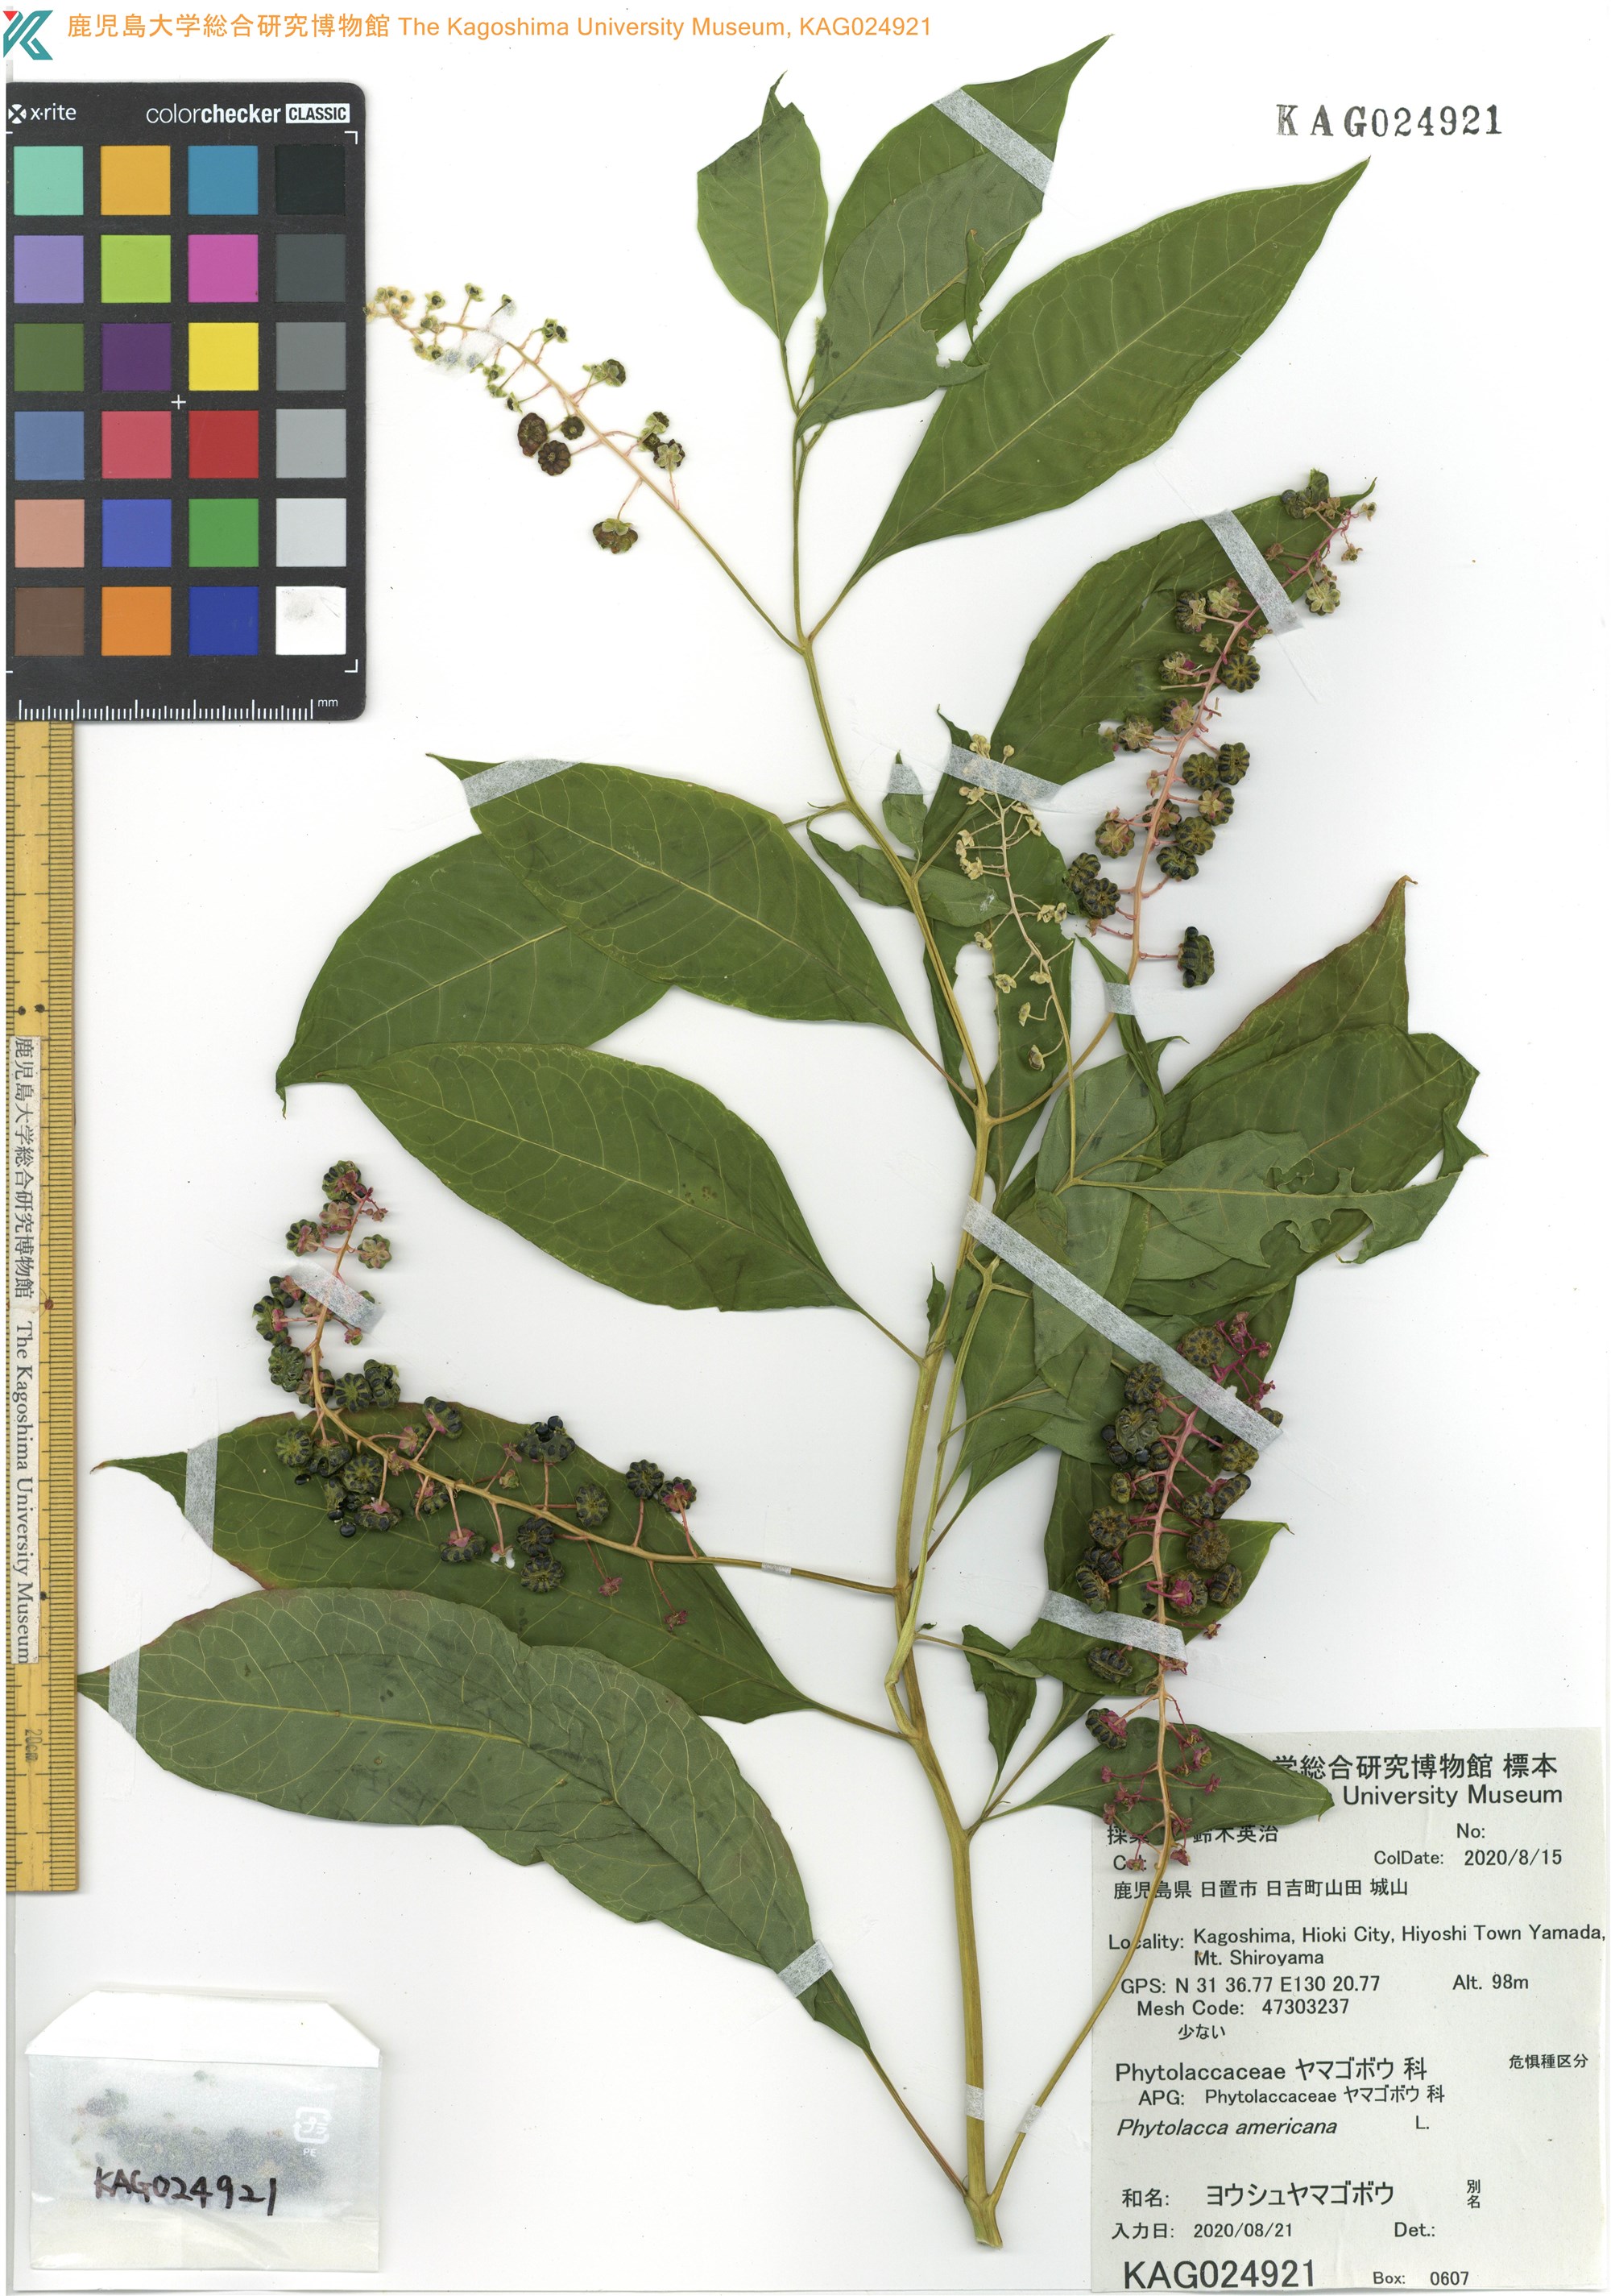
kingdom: Plantae
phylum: Tracheophyta
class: Magnoliopsida
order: Caryophyllales
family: Phytolaccaceae
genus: Phytolacca
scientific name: Phytolacca americana
